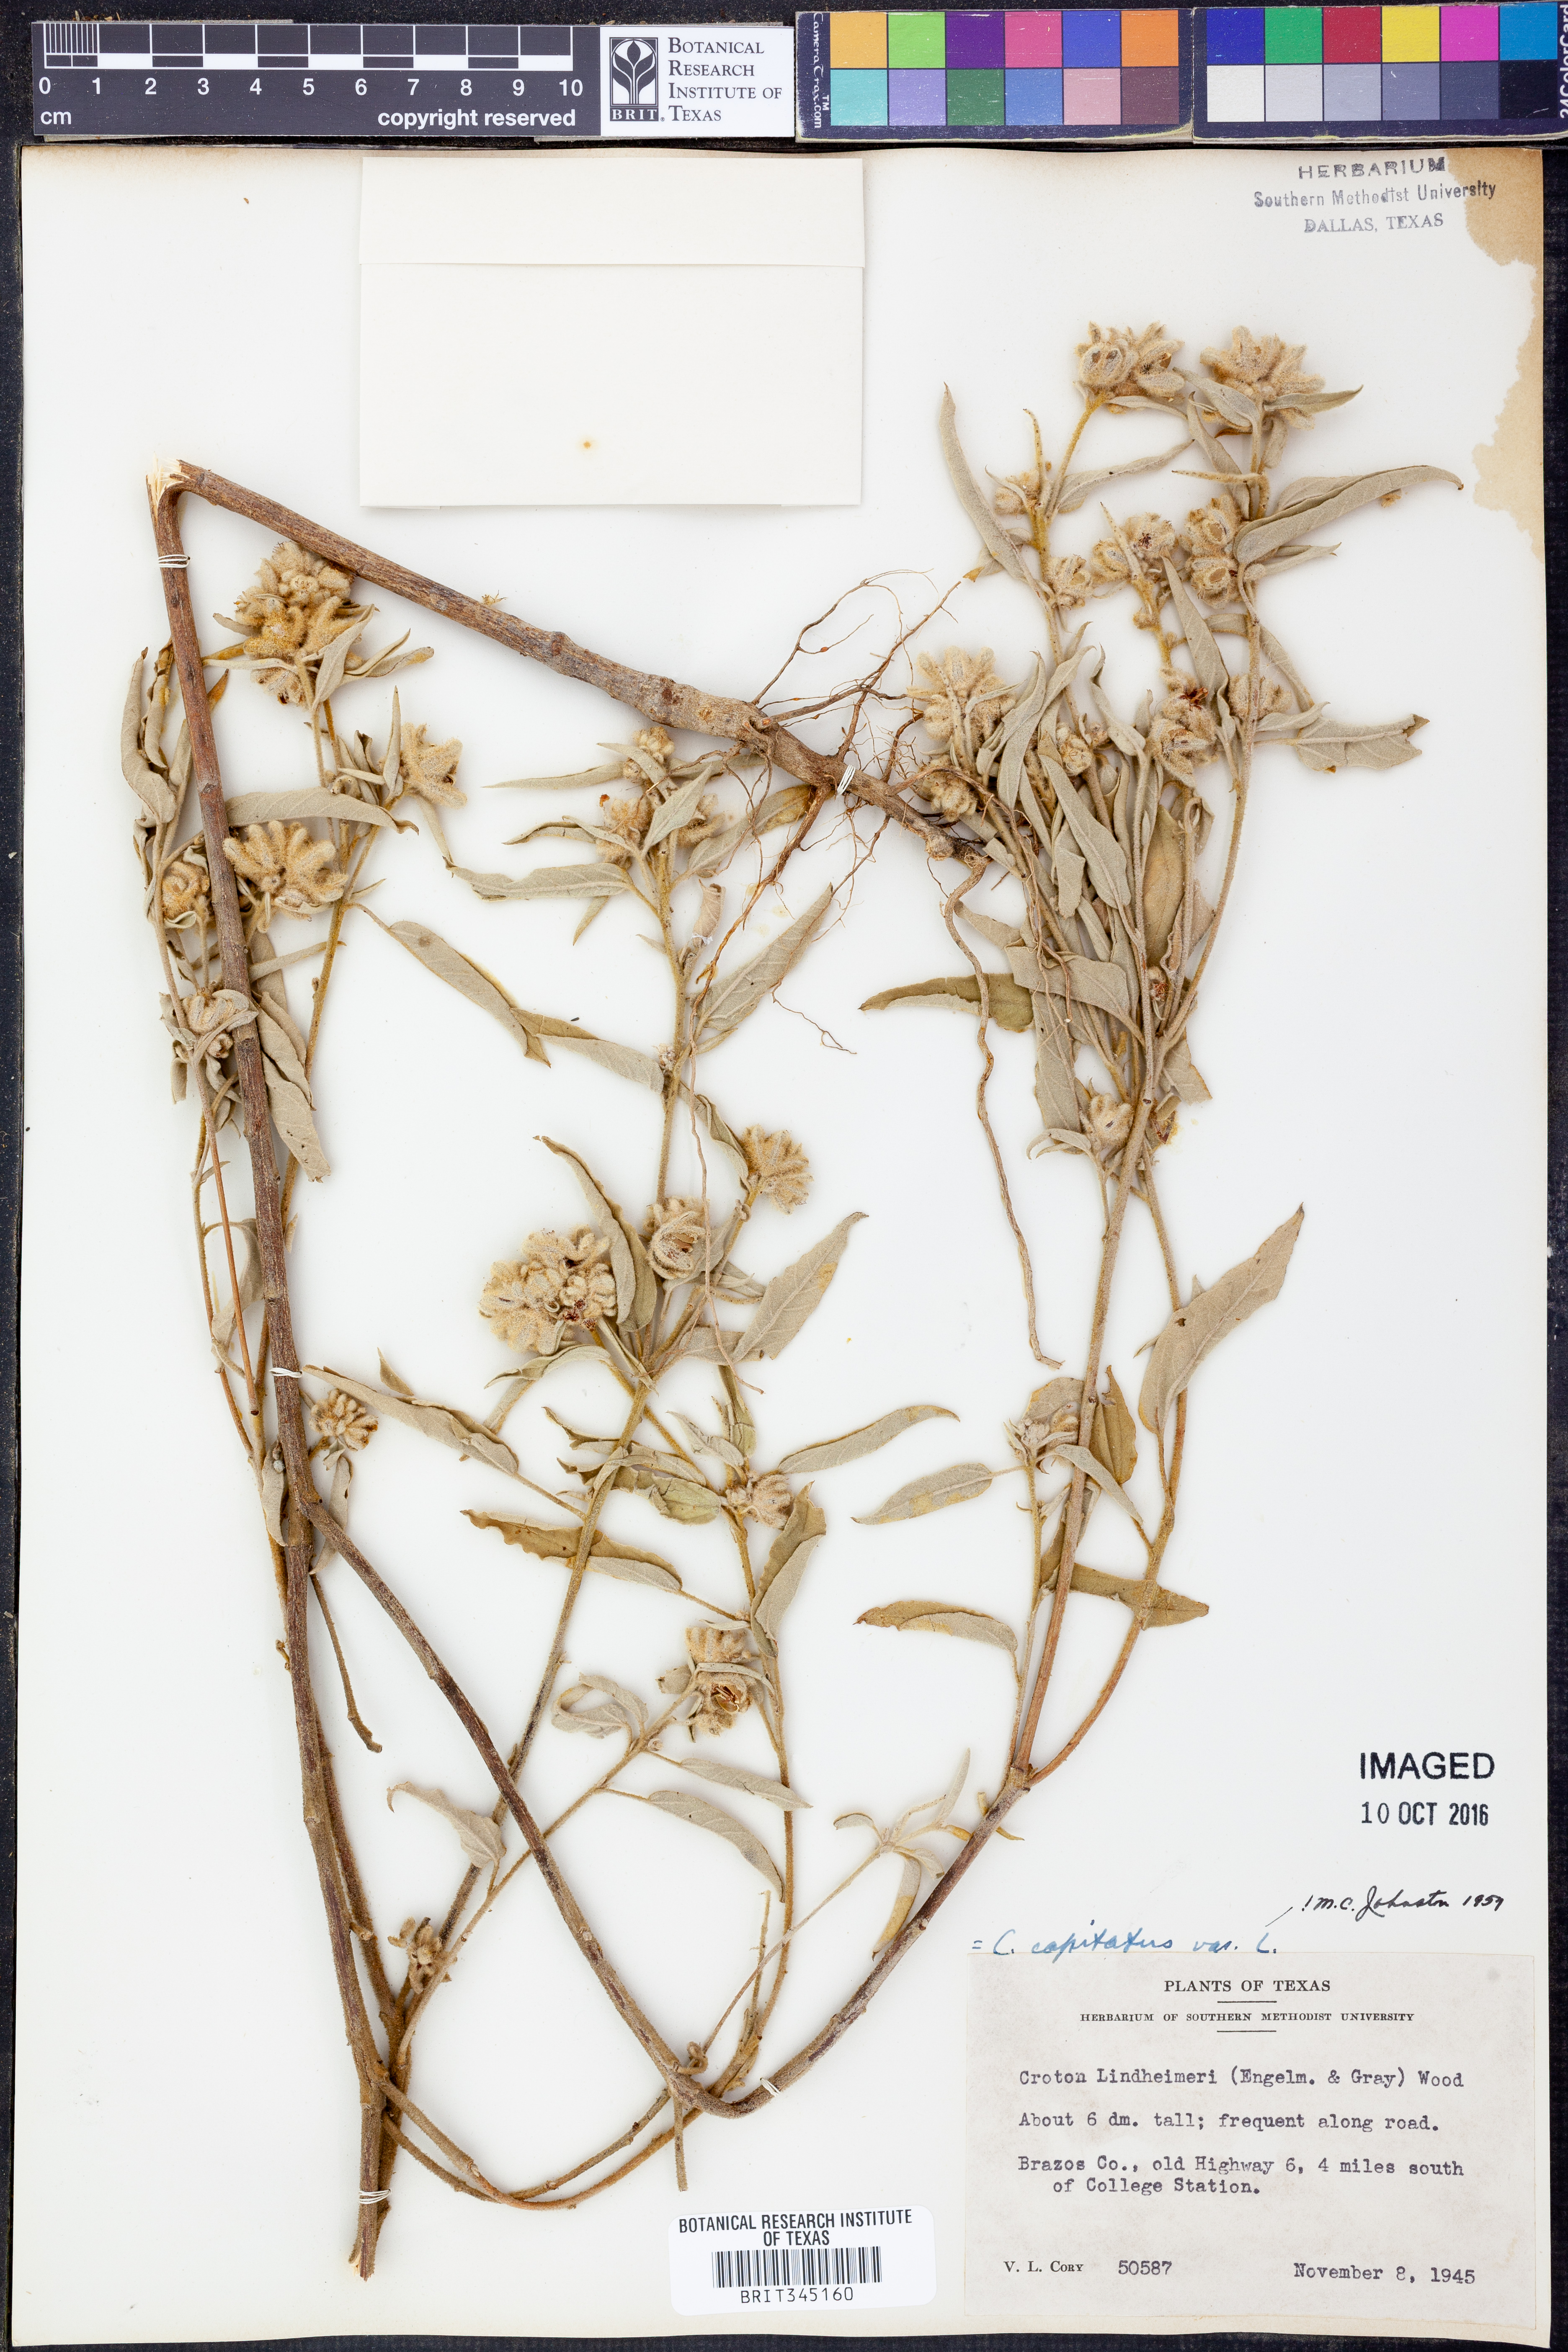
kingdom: Plantae
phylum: Tracheophyta
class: Magnoliopsida
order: Malpighiales
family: Euphorbiaceae
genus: Croton
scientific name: Croton lindheimeri
